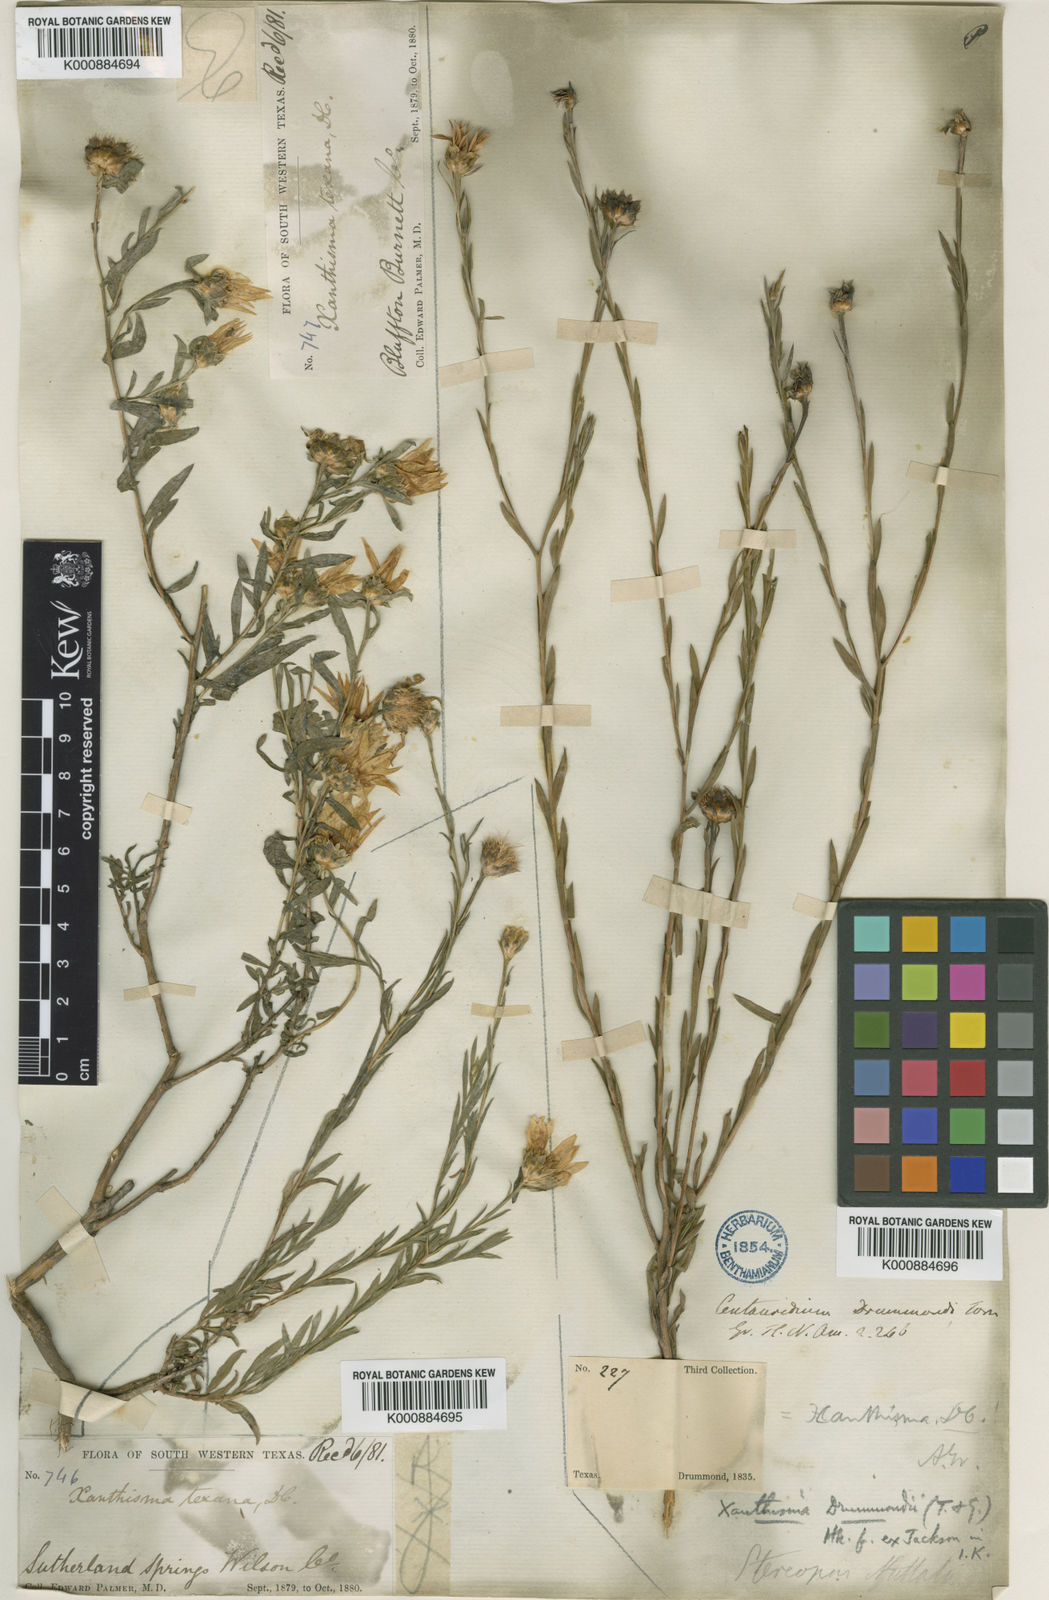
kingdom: Plantae
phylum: Tracheophyta
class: Magnoliopsida
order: Asterales
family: Asteraceae
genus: Xanthisma
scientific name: Xanthisma texanum
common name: Texas sleepy daisy
